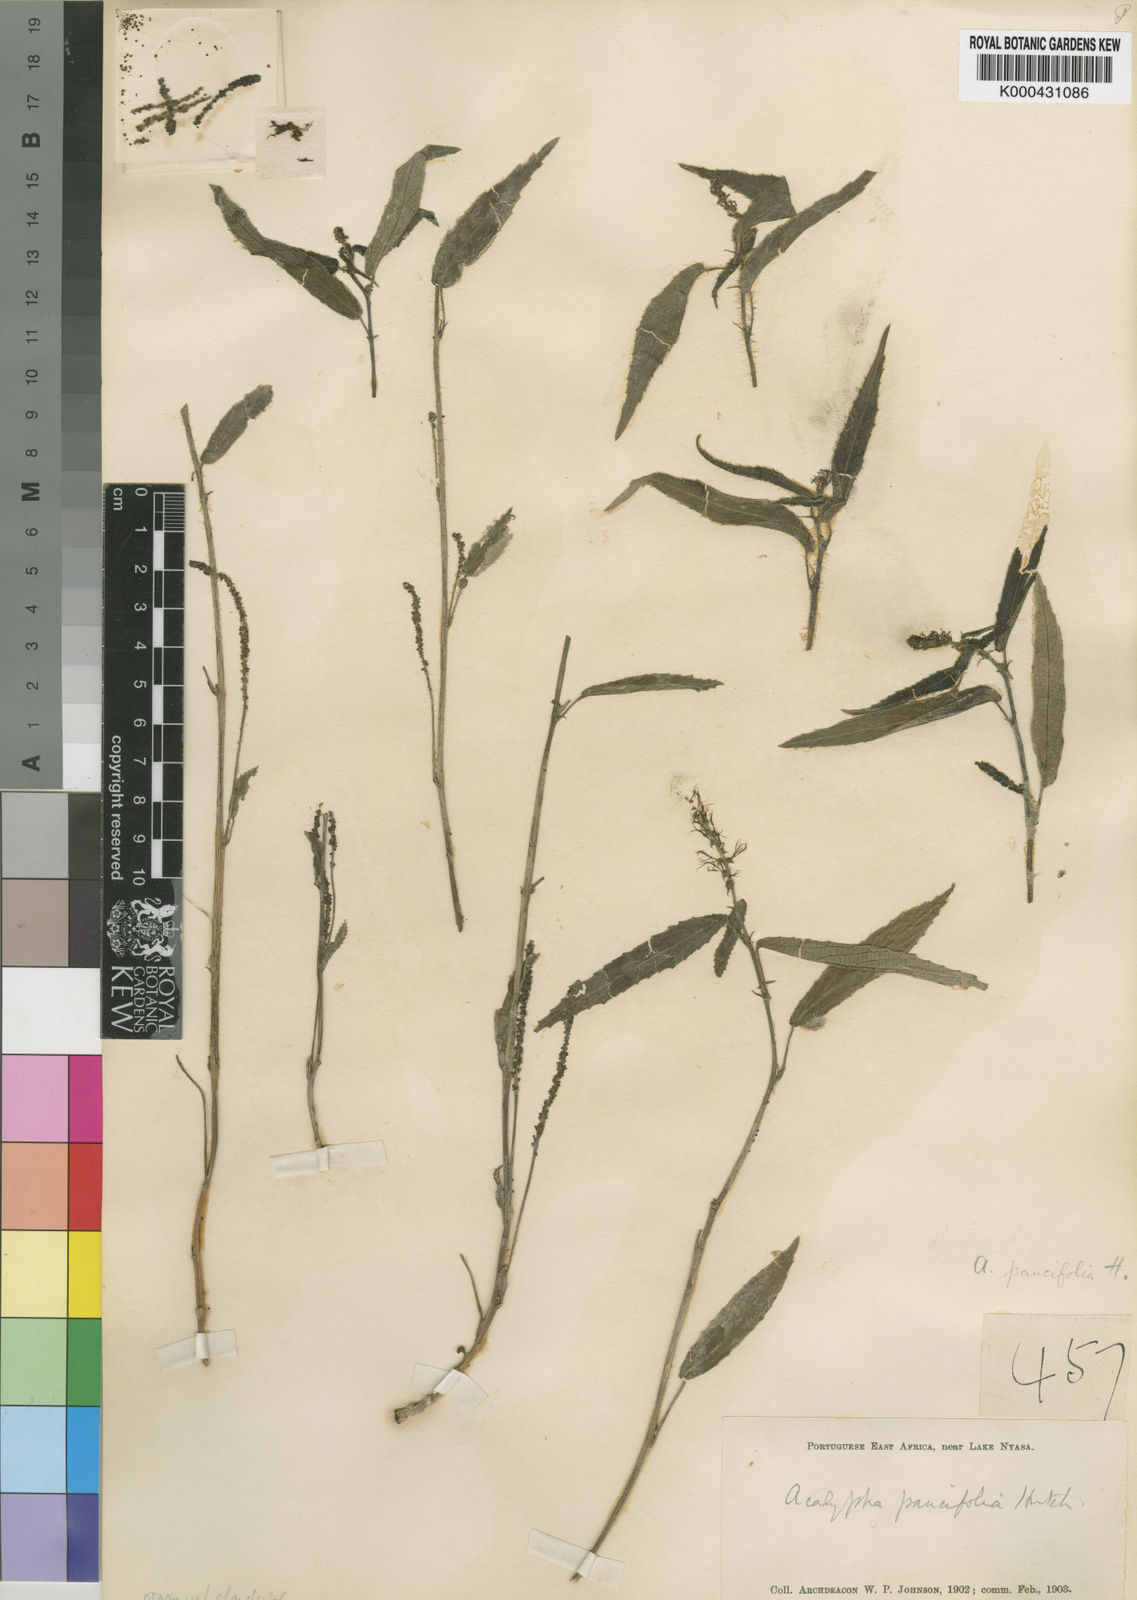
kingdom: Plantae
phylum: Tracheophyta
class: Magnoliopsida
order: Malpighiales
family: Euphorbiaceae
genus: Acalypha
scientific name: Acalypha paucifolia
